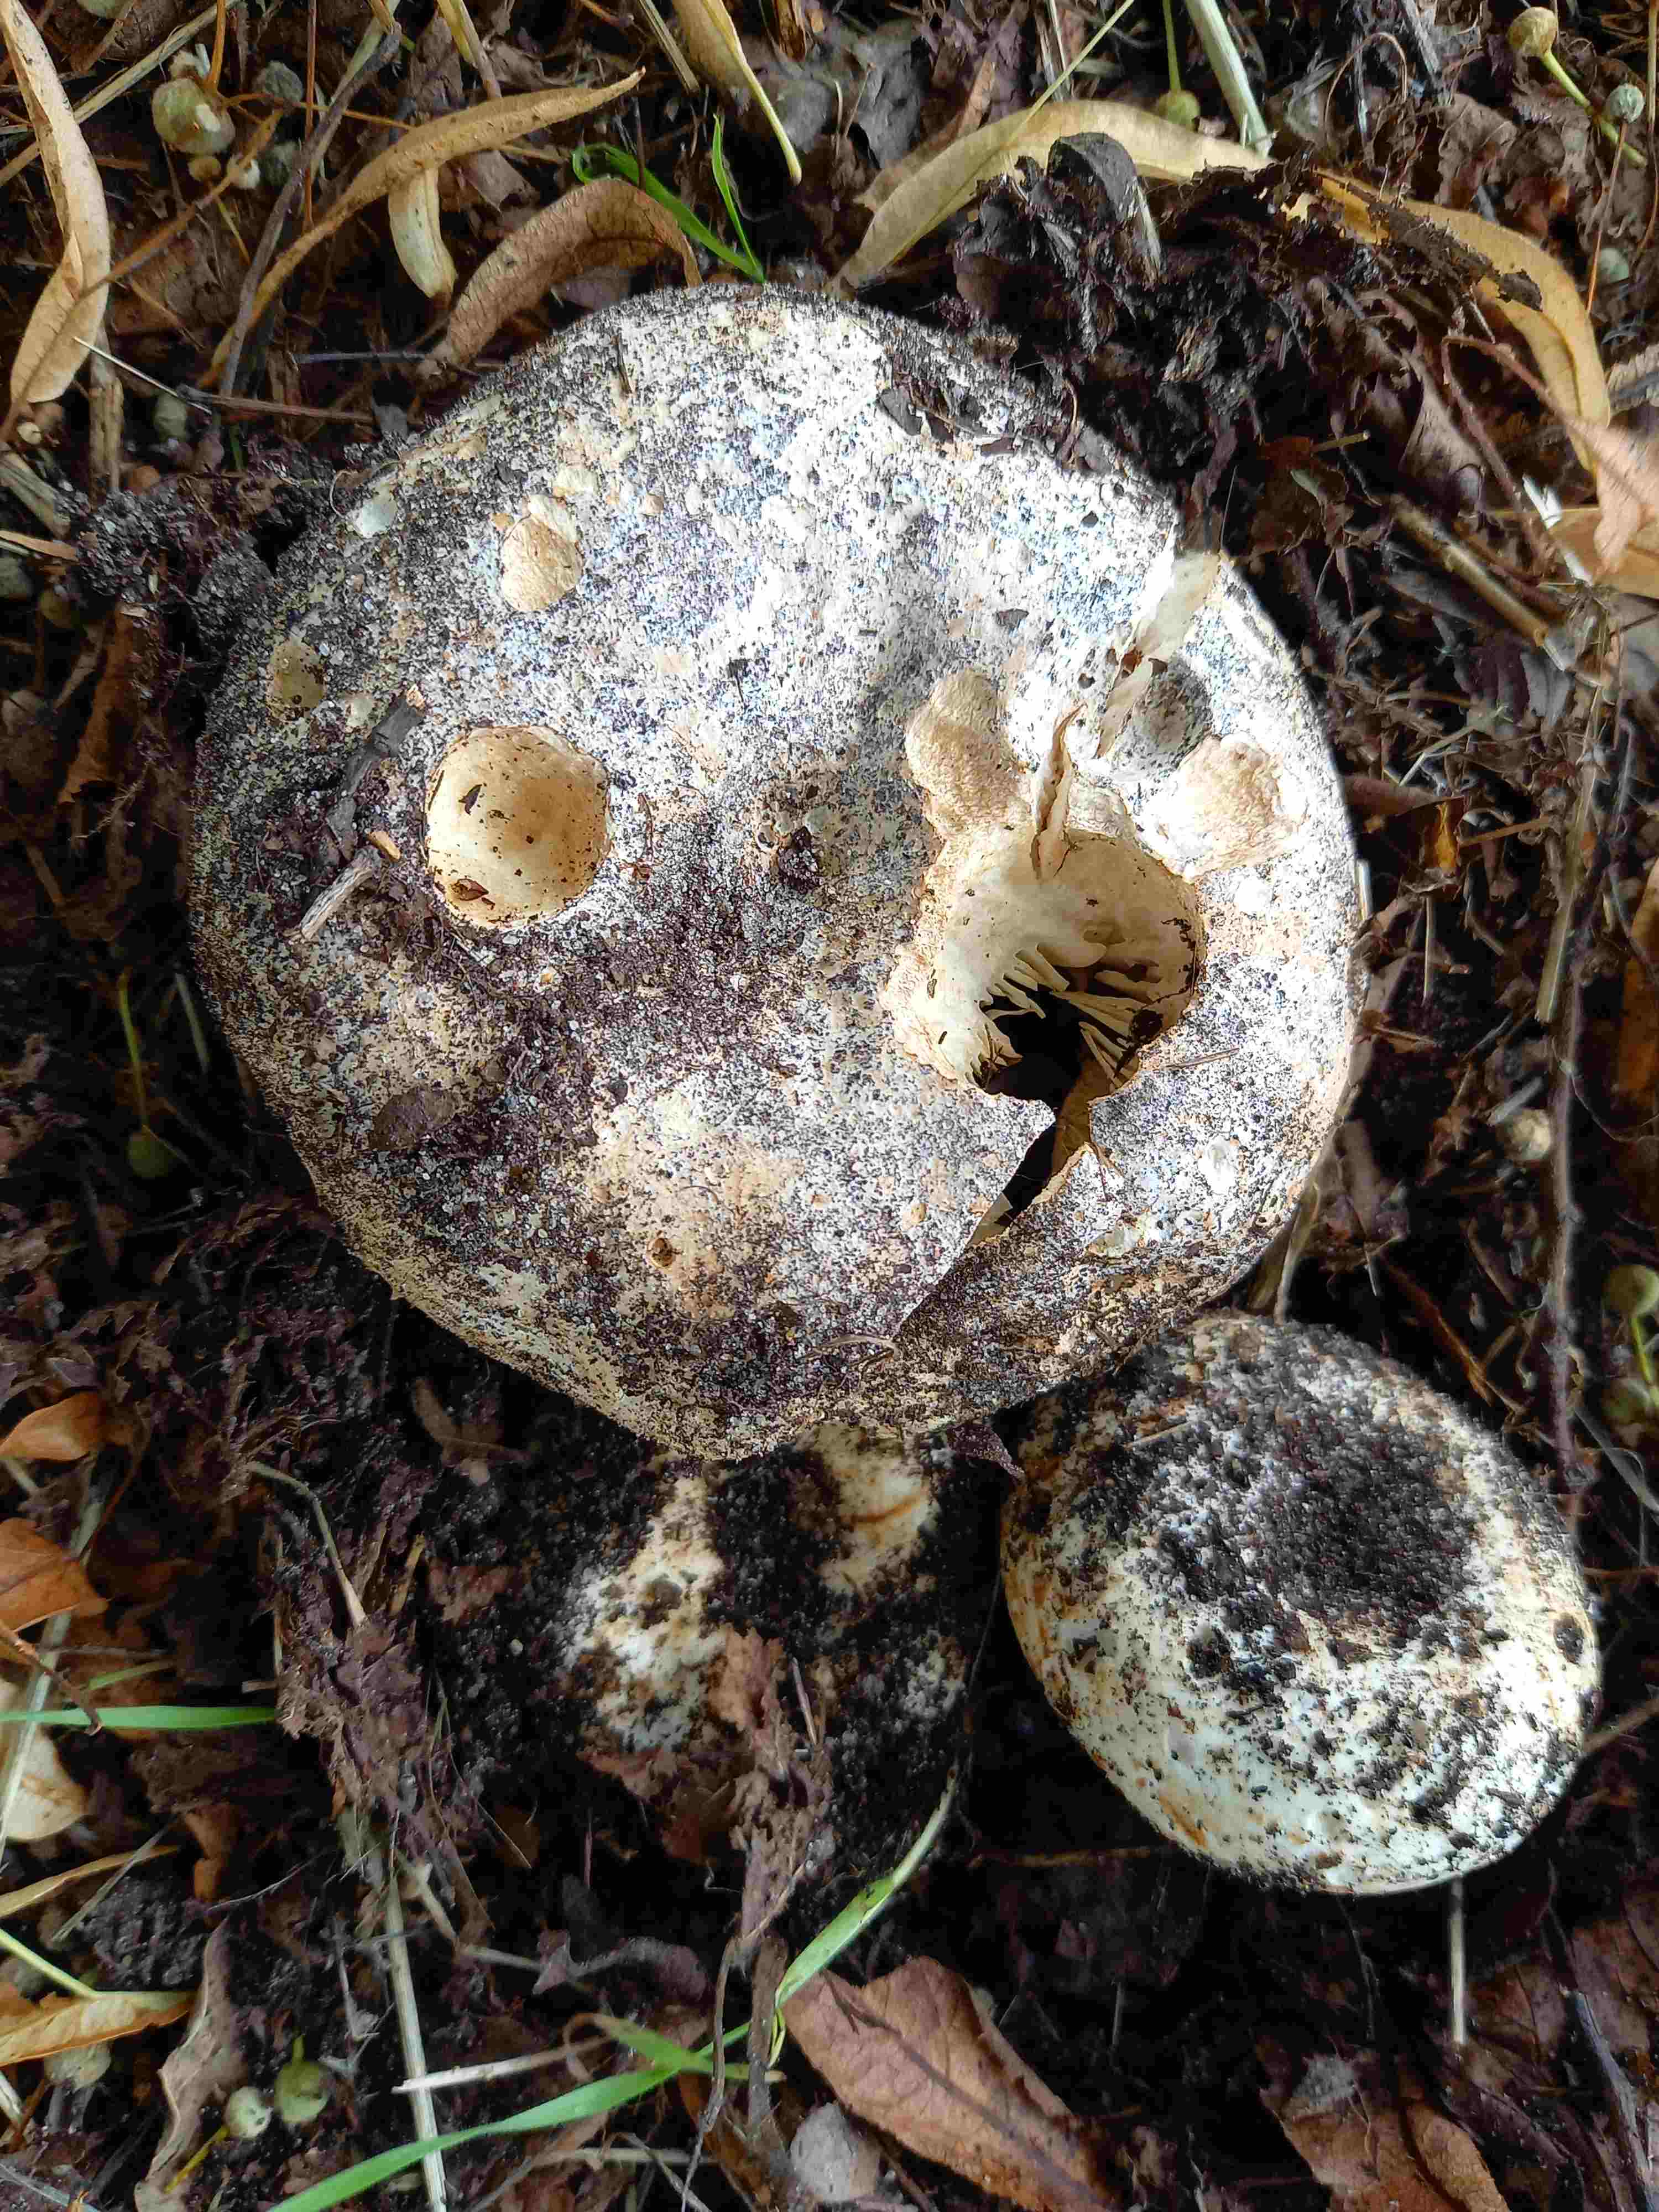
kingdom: Fungi
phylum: Basidiomycota
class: Agaricomycetes
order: Russulales
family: Russulaceae
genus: Russula
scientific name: Russula
